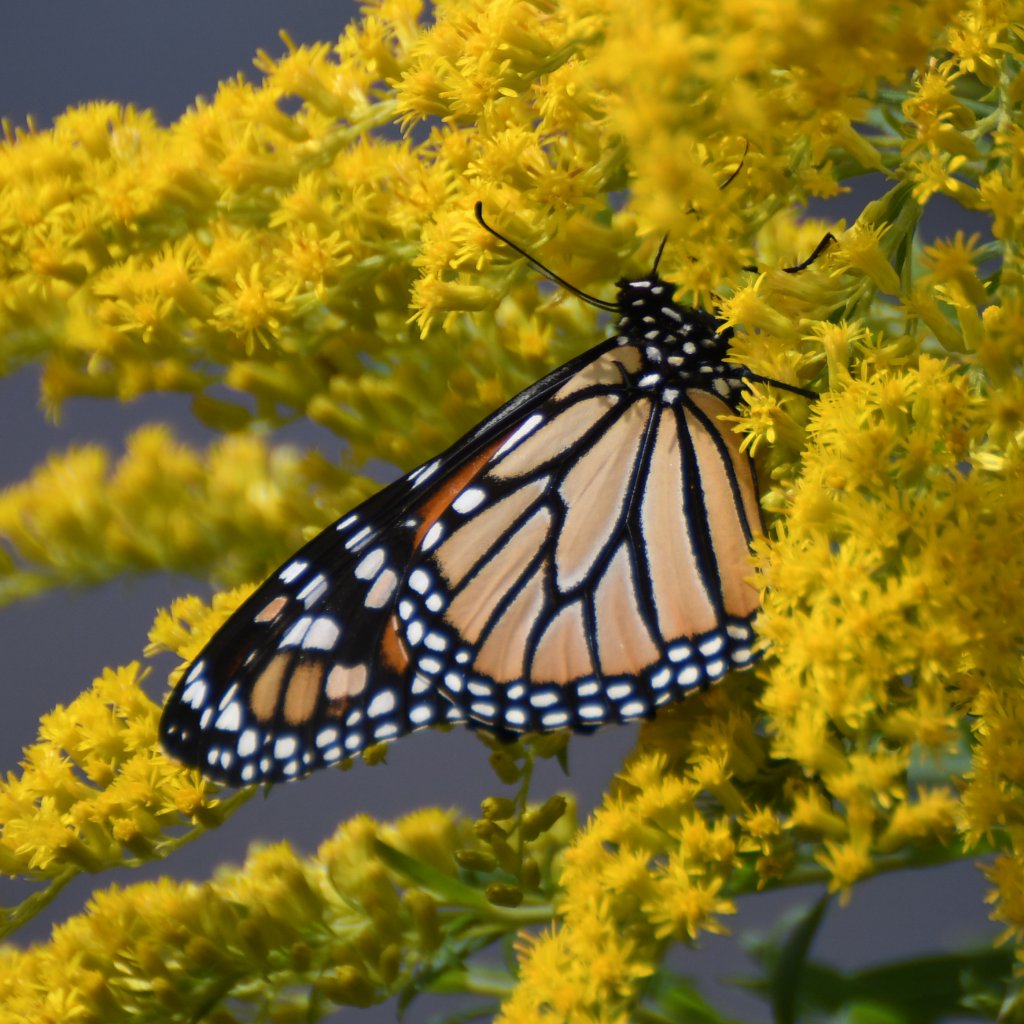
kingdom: Animalia
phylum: Arthropoda
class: Insecta
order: Lepidoptera
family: Nymphalidae
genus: Danaus
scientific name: Danaus plexippus
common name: Monarch
